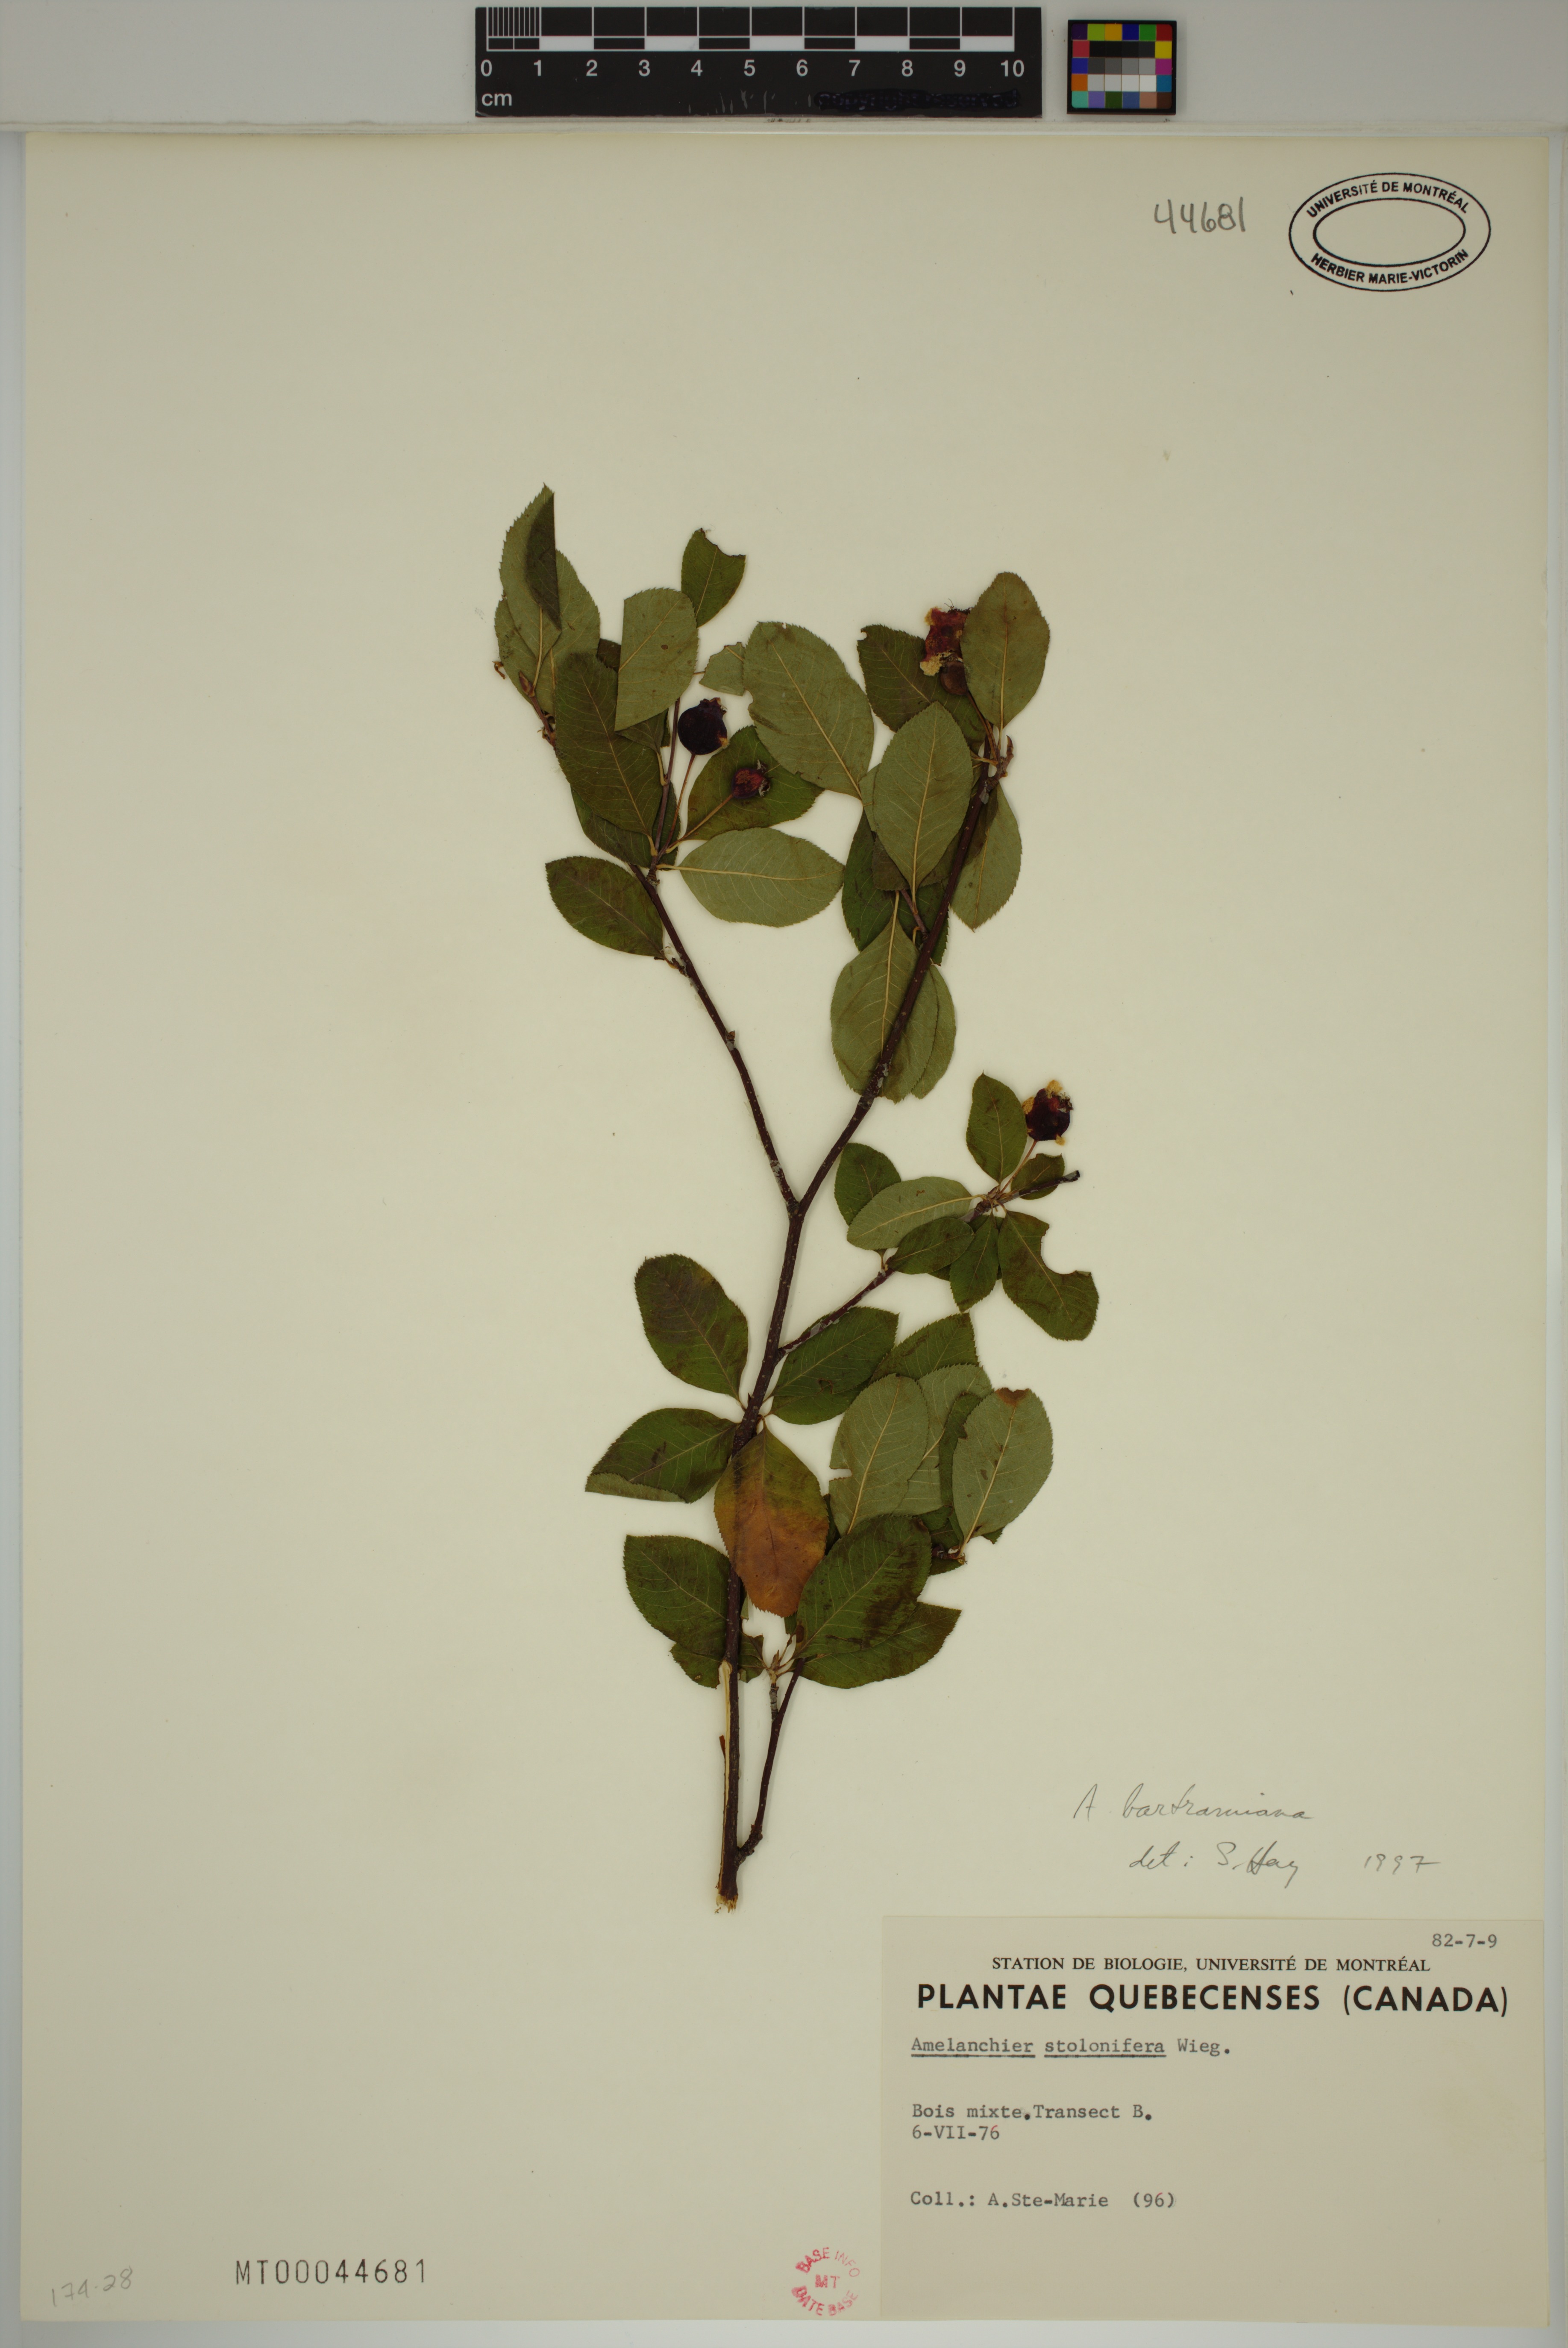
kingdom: Plantae
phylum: Tracheophyta
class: Magnoliopsida
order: Rosales
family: Rosaceae
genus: Amelanchier
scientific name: Amelanchier bartramiana
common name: Mountain serviceberry
